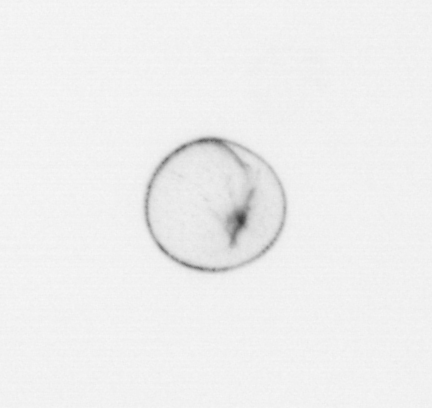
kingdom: Chromista
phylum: Myzozoa
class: Dinophyceae
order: Noctilucales
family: Noctilucaceae
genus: Noctiluca
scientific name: Noctiluca scintillans
